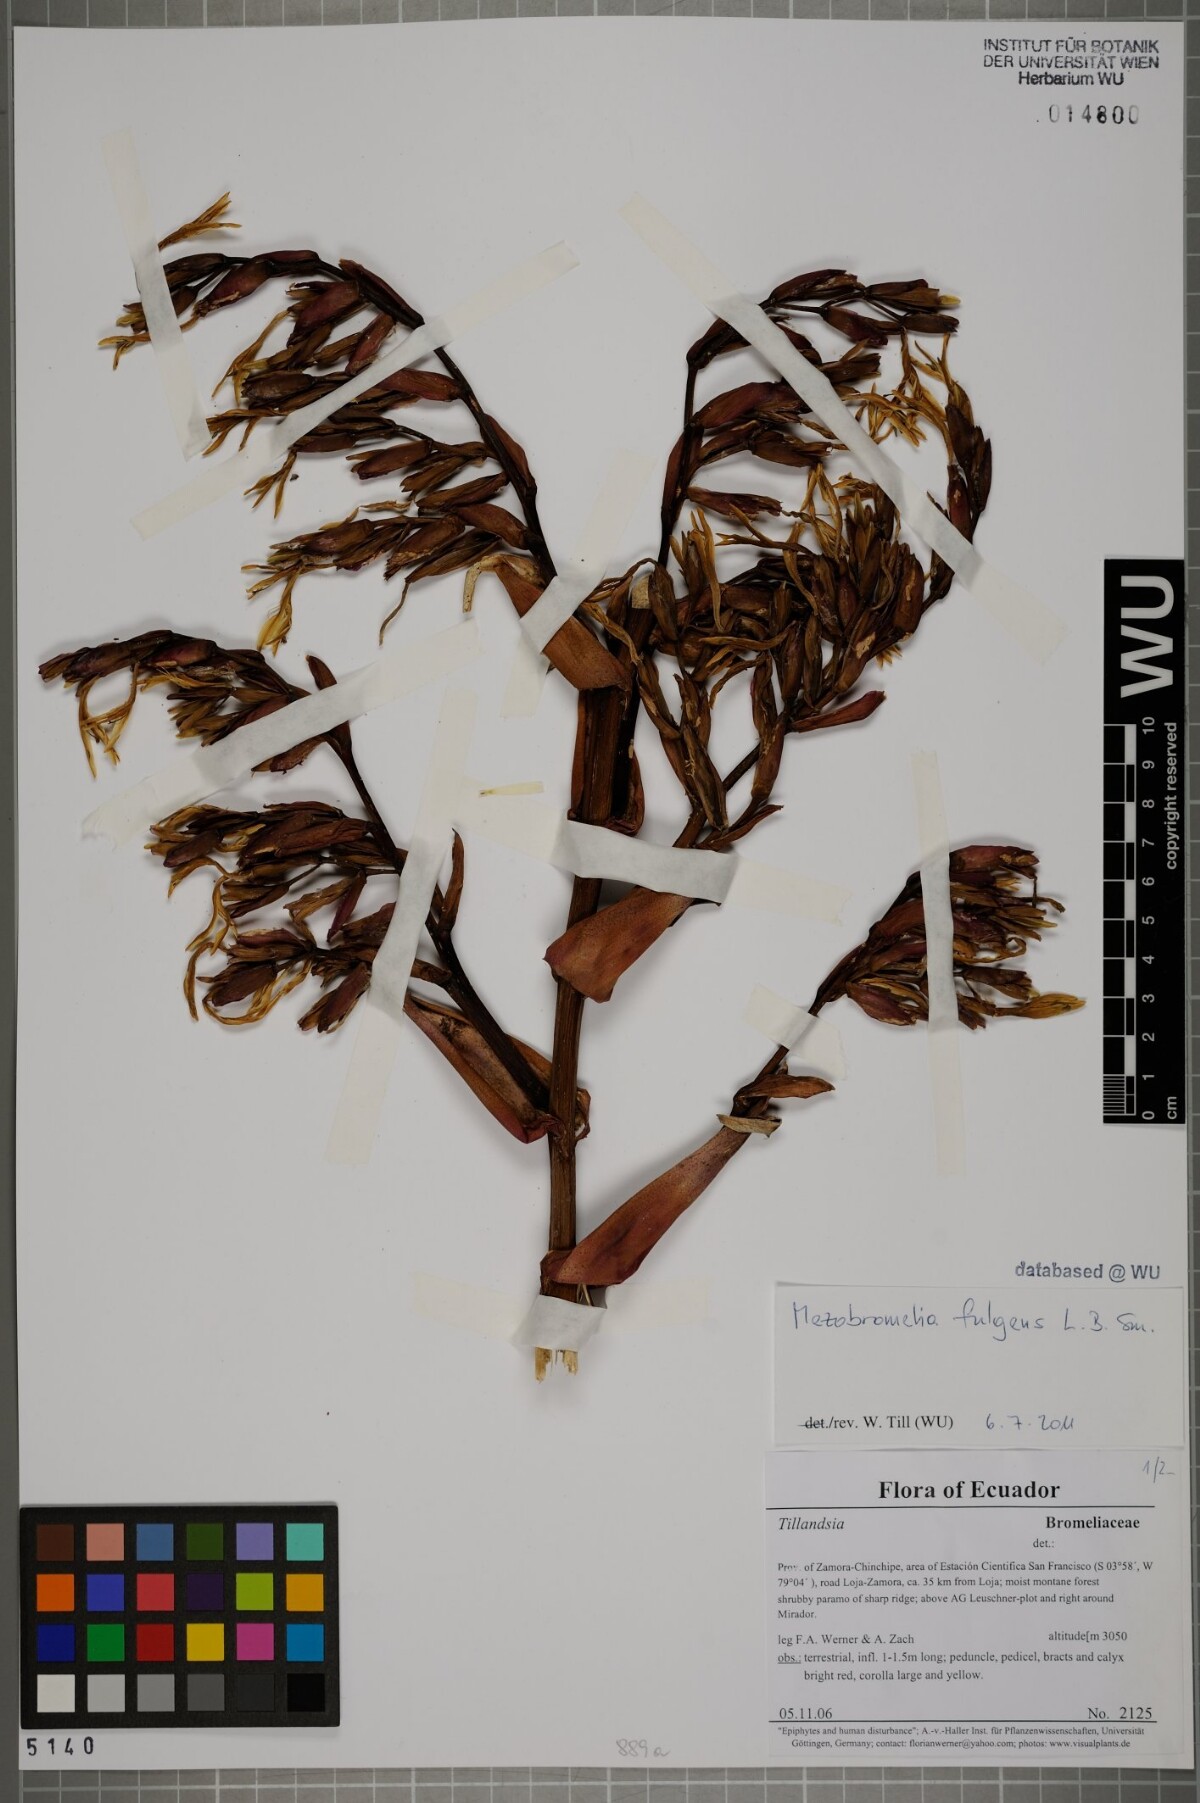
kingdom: Plantae
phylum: Tracheophyta
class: Liliopsida
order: Poales
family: Bromeliaceae
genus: Gregbrownia
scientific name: Gregbrownia fulgens
